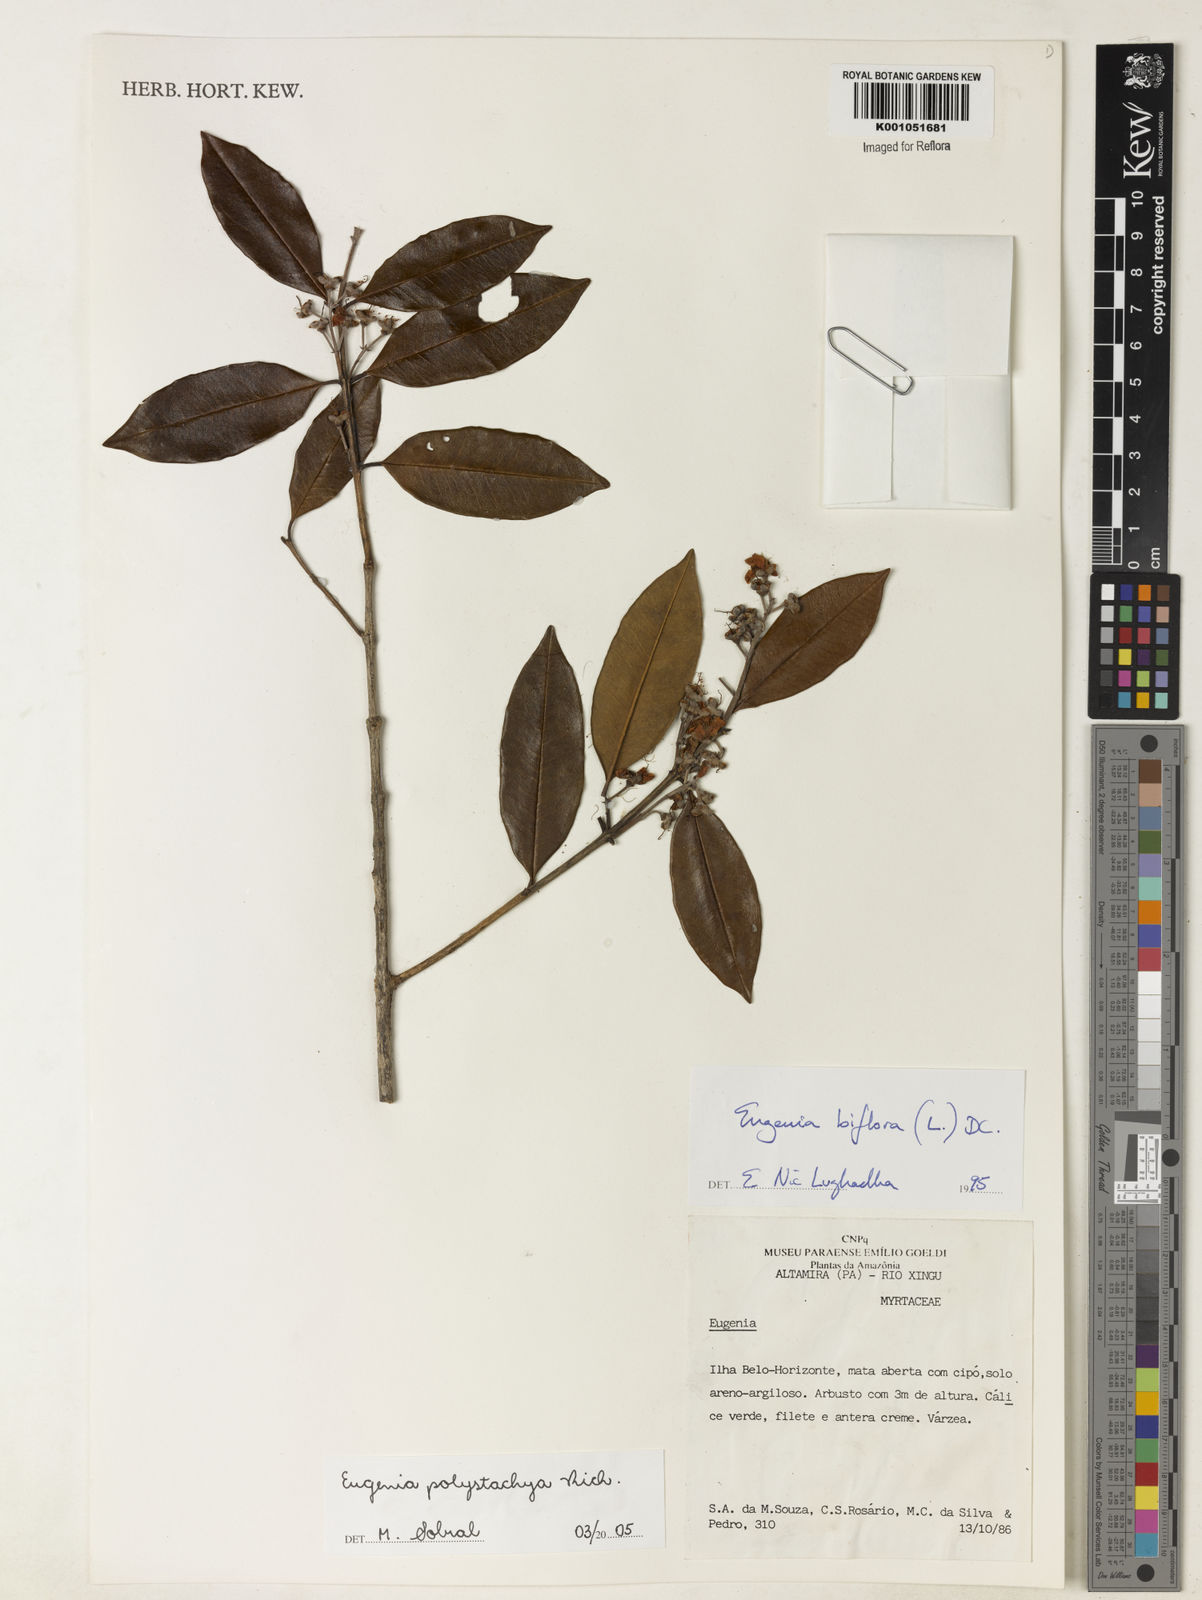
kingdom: Plantae
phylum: Tracheophyta
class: Magnoliopsida
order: Myrtales
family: Myrtaceae
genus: Eugenia
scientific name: Eugenia polystachya
